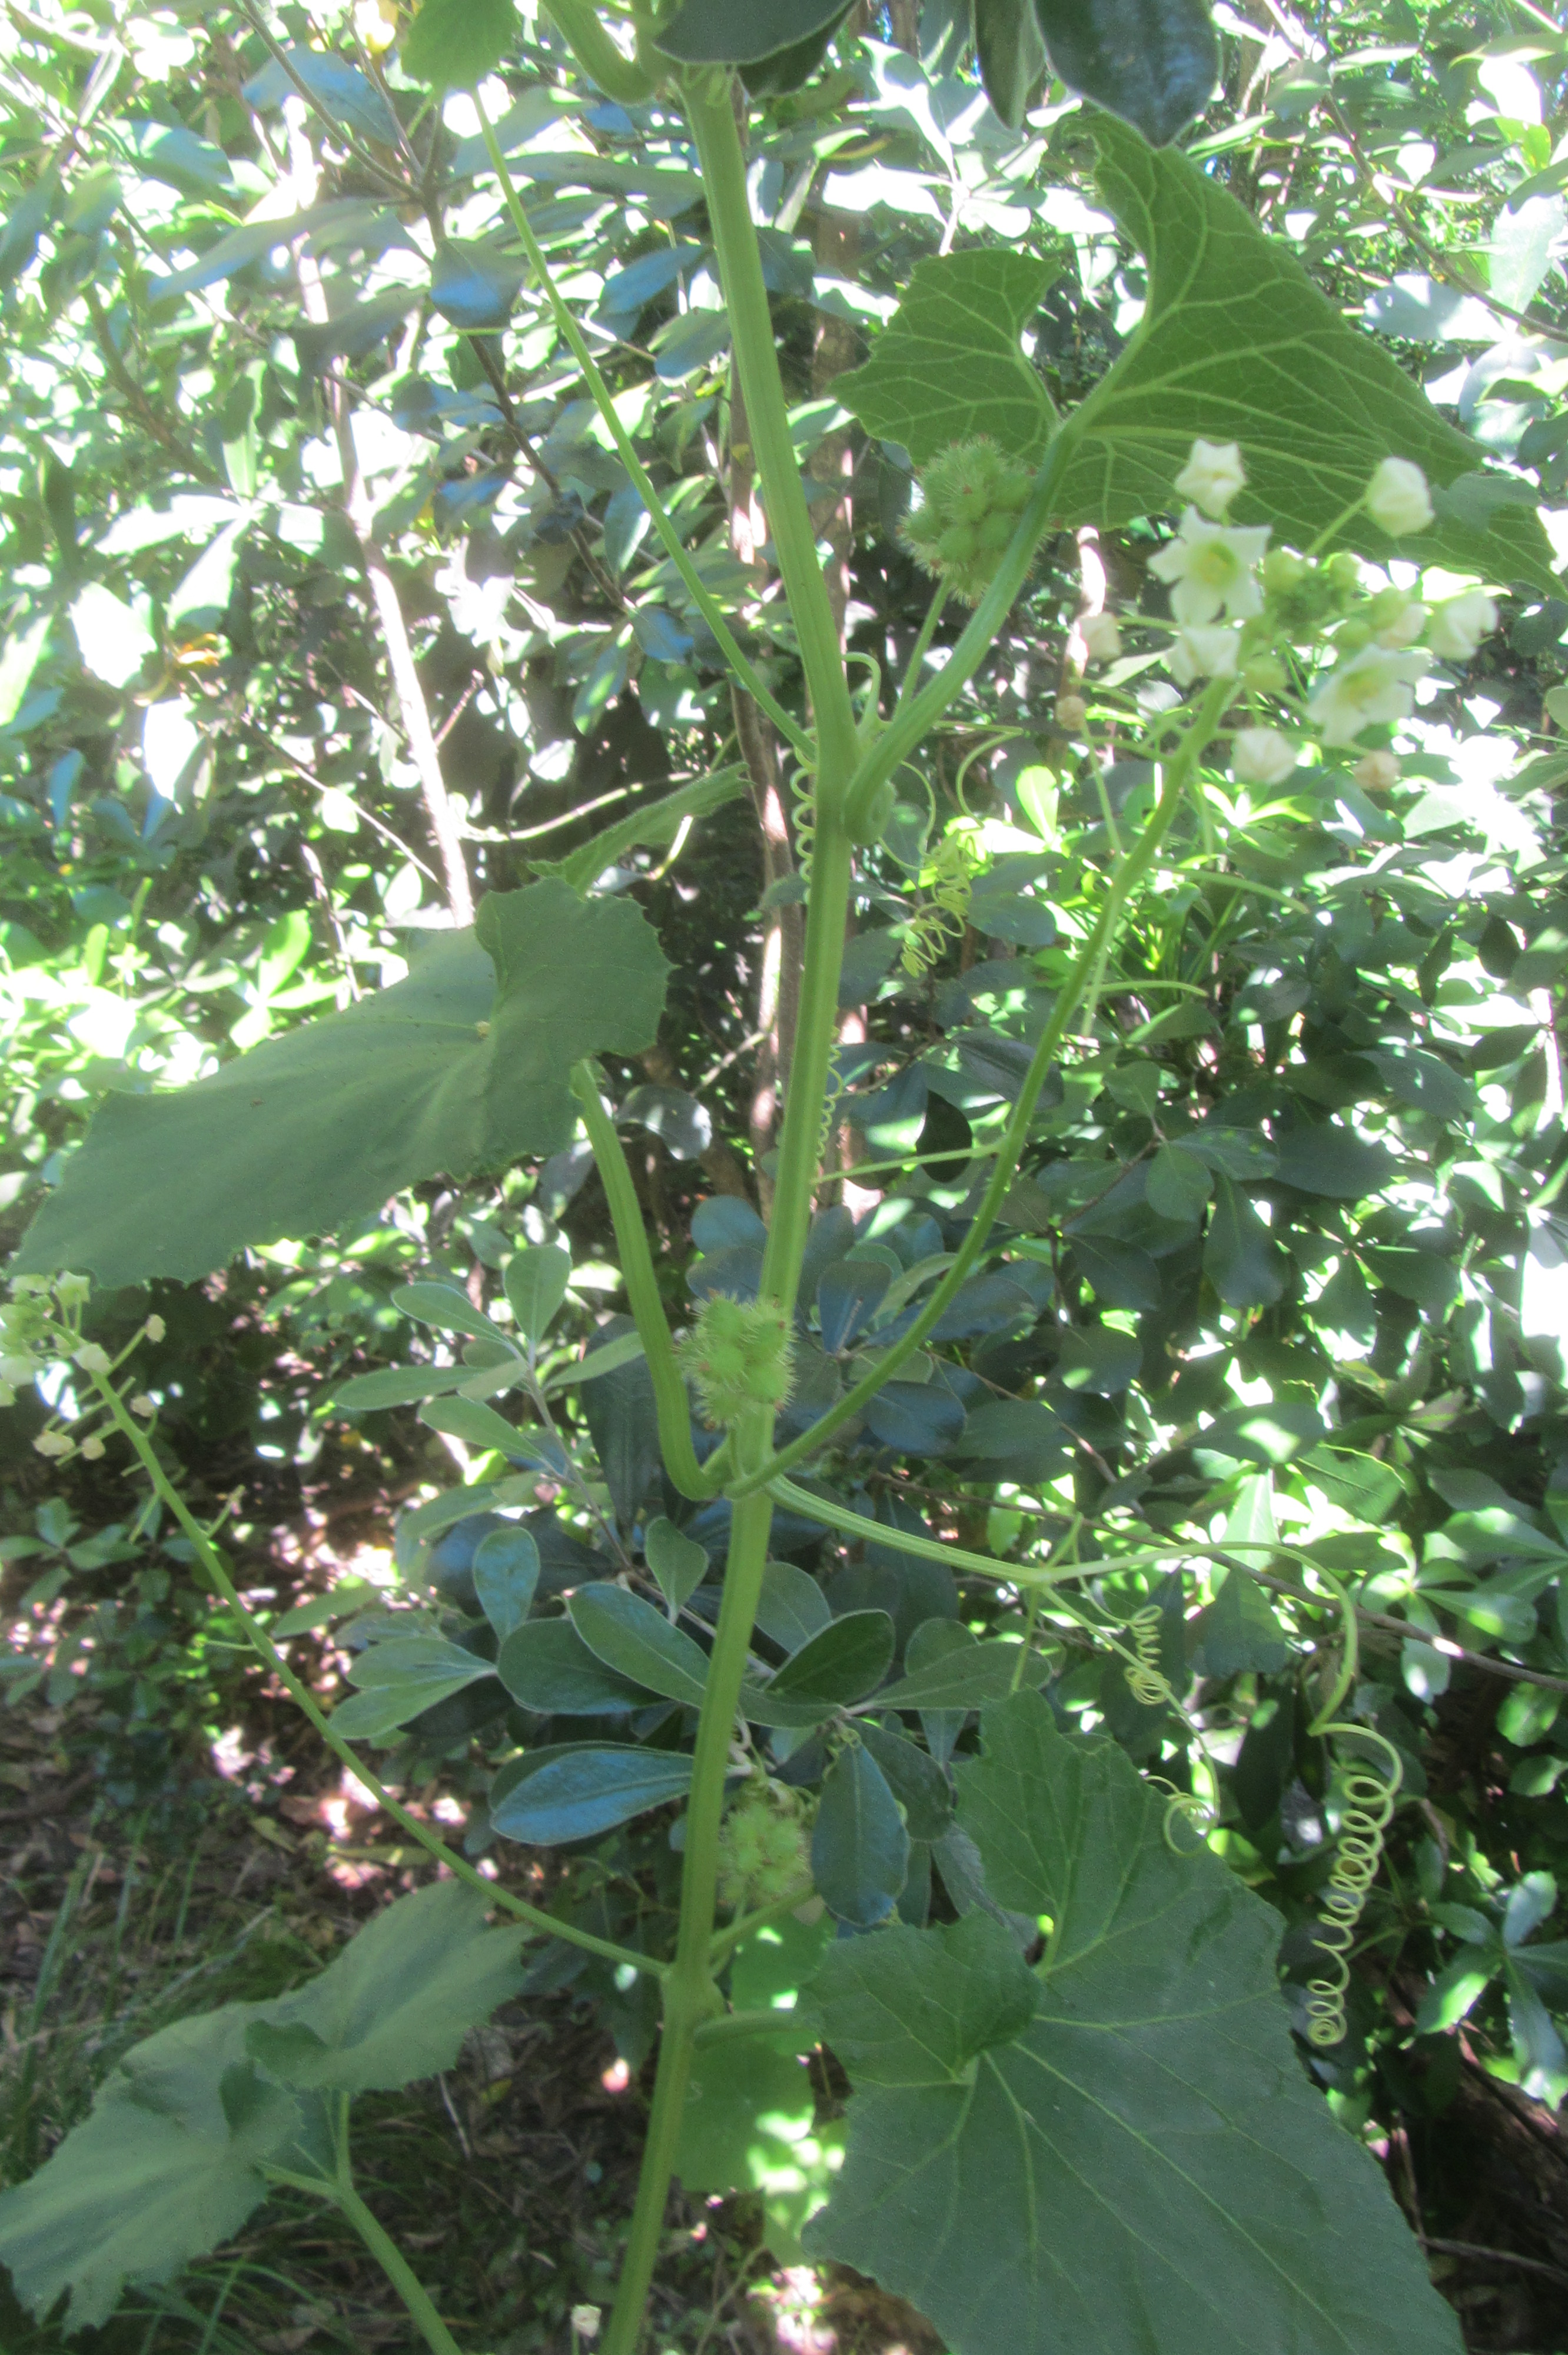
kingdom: Plantae
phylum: Tracheophyta
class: Magnoliopsida
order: Cucurbitales
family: Cucurbitaceae
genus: Sicyos
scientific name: Sicyos mawhai
